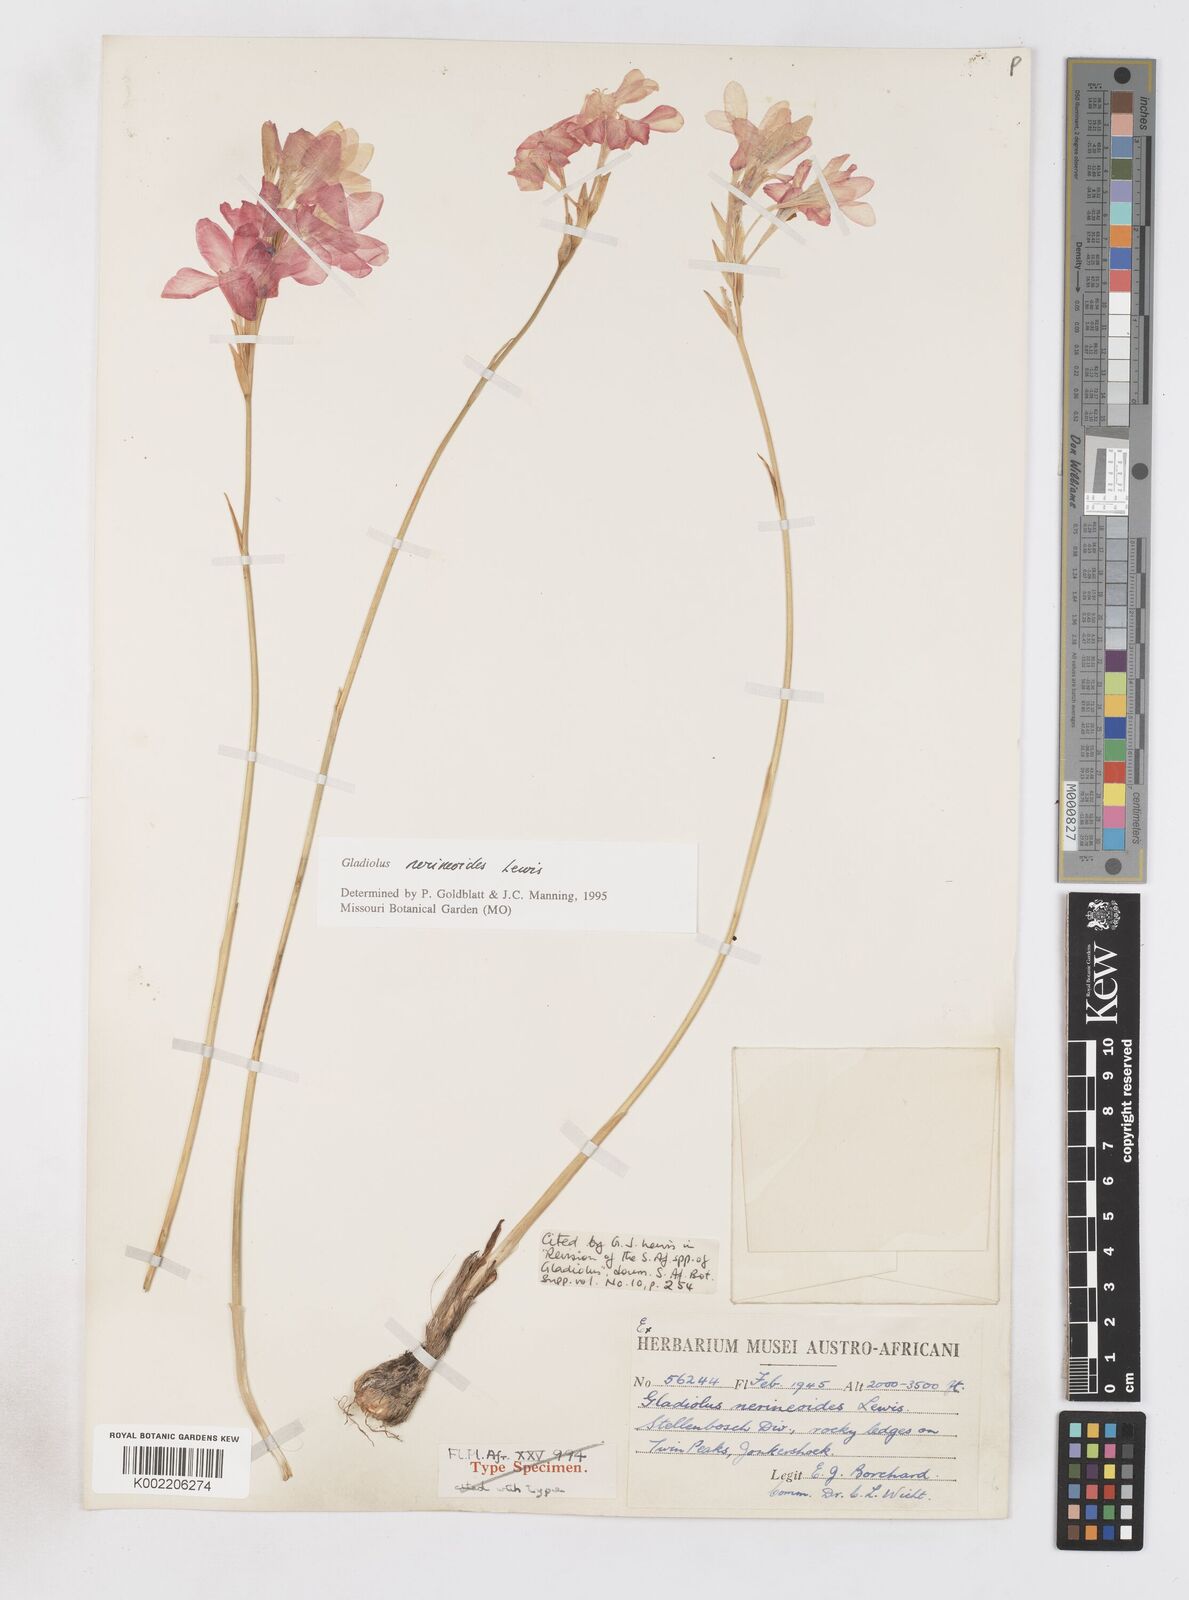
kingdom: Plantae
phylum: Tracheophyta
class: Liliopsida
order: Asparagales
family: Iridaceae
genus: Gladiolus
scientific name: Gladiolus nerineoides
